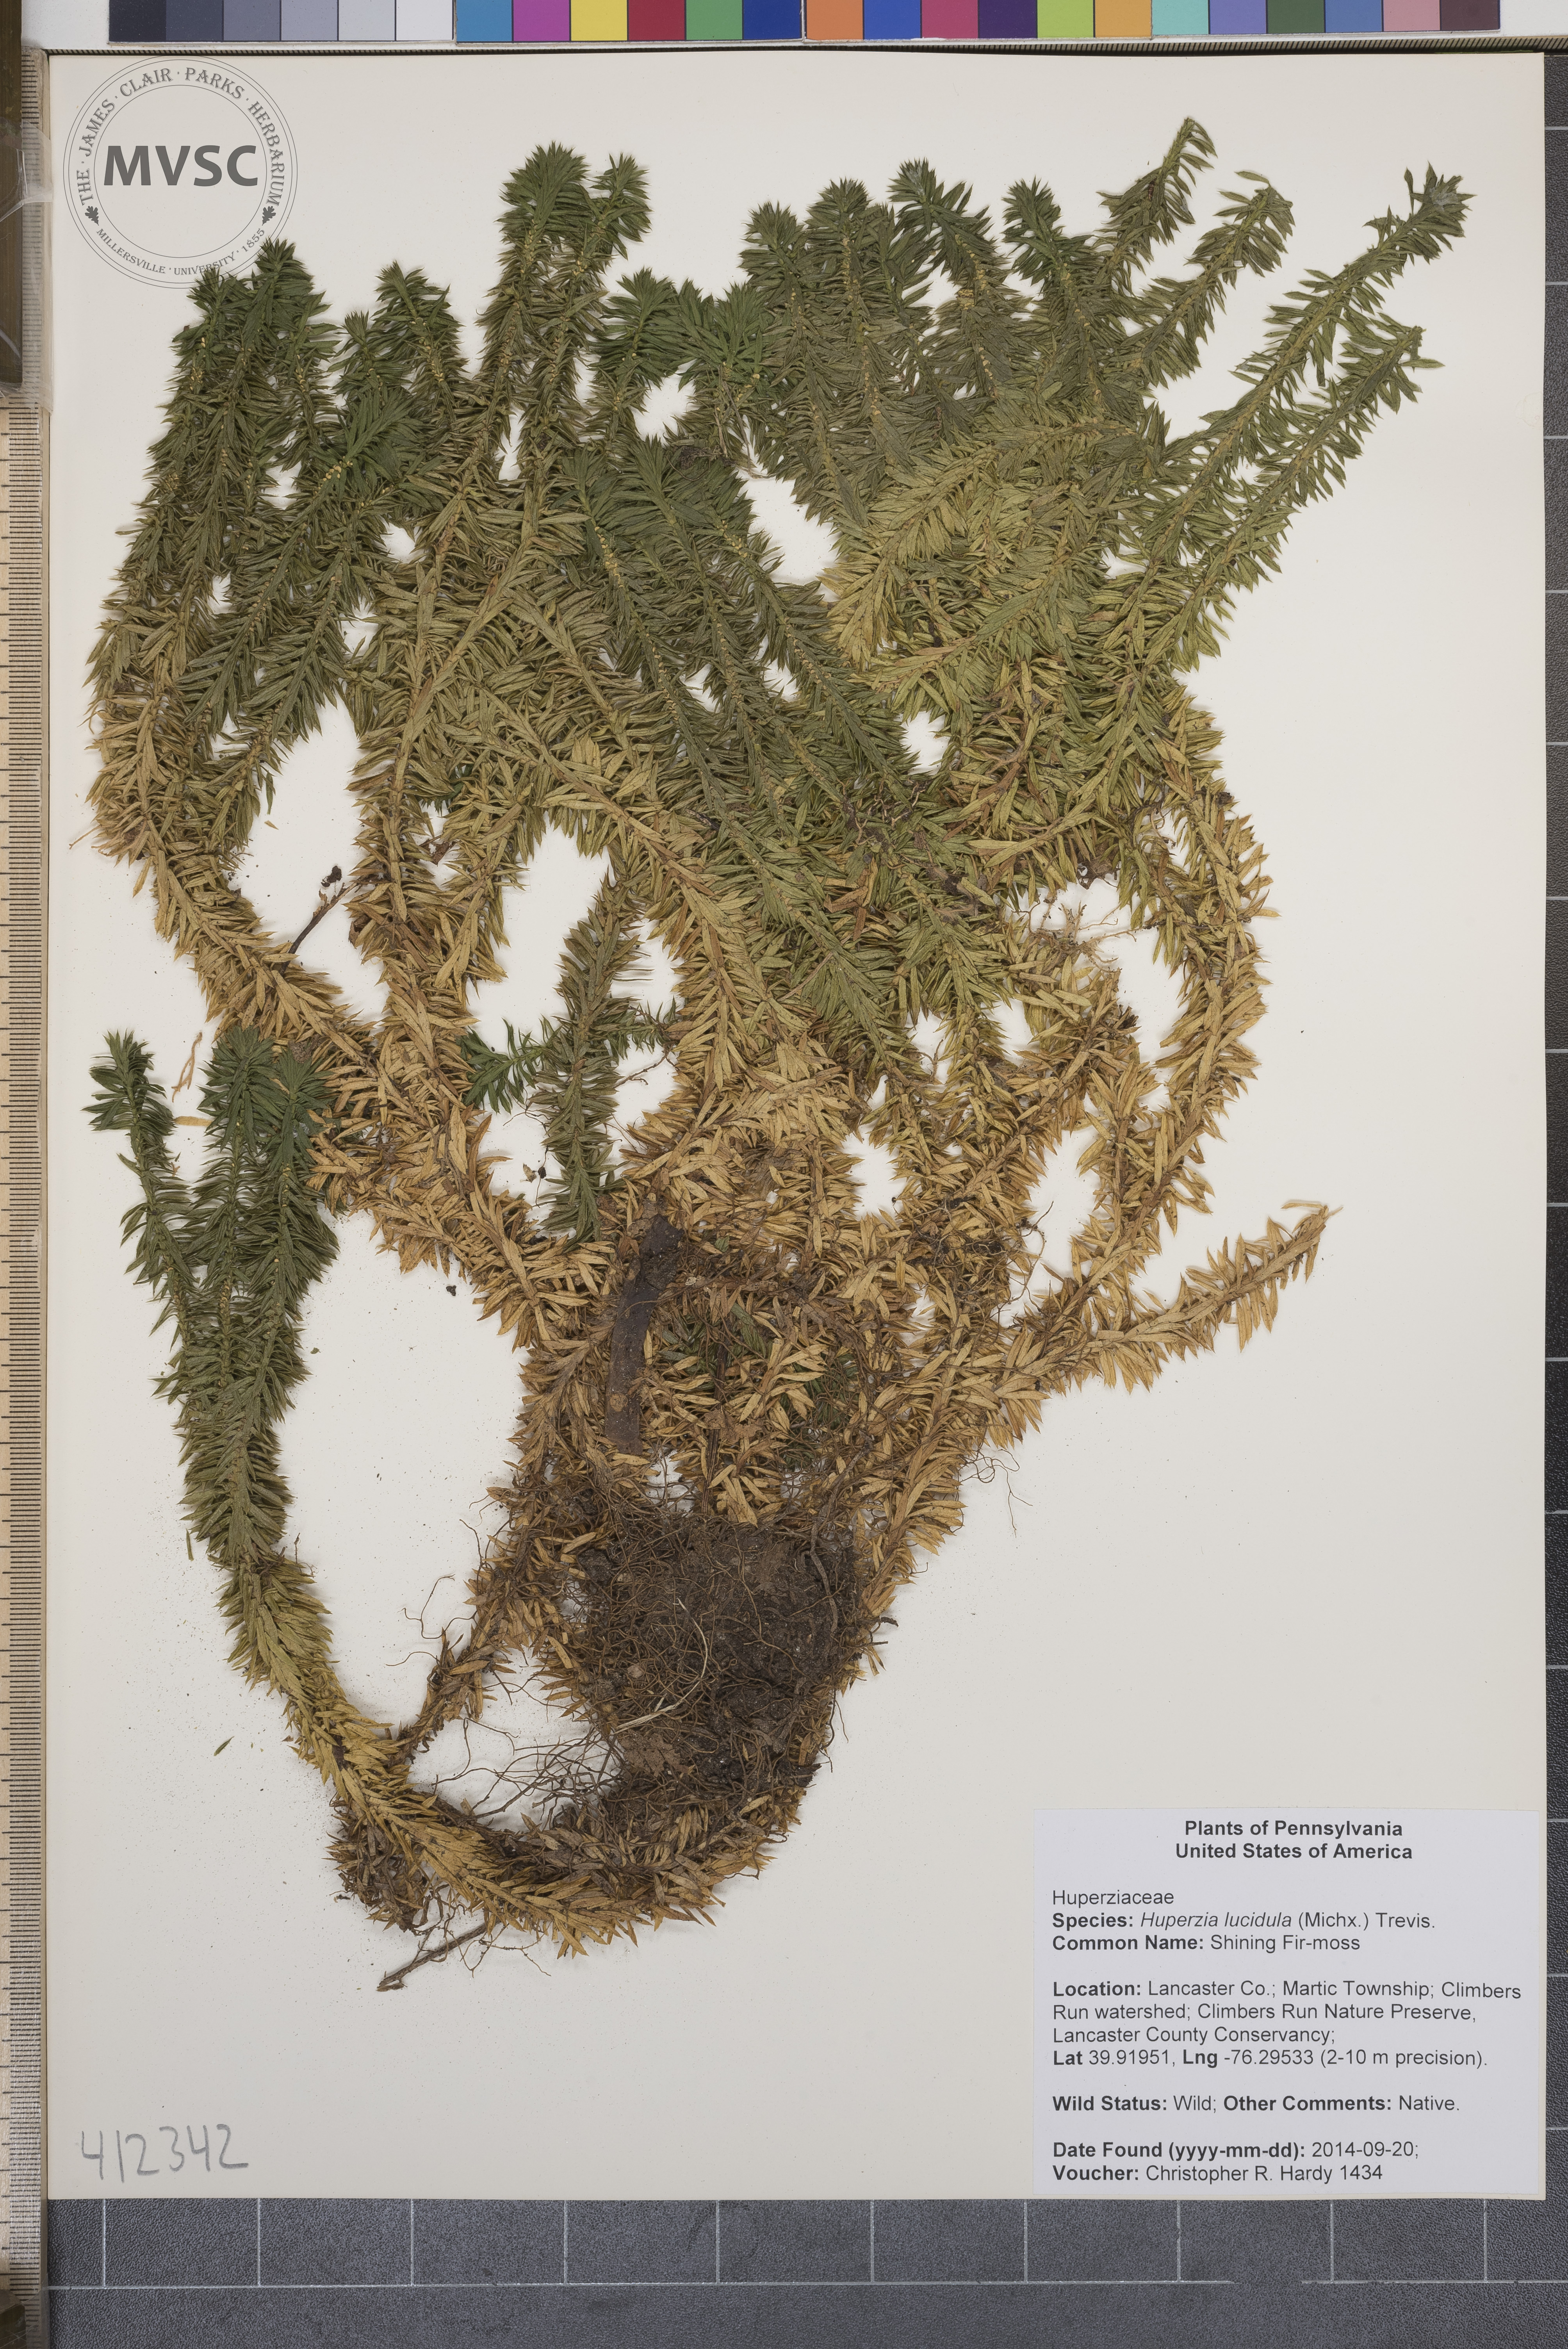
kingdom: Plantae
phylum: Tracheophyta
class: Lycopodiopsida
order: Lycopodiales
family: Lycopodiaceae
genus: Huperzia
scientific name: Huperzia lucidula
